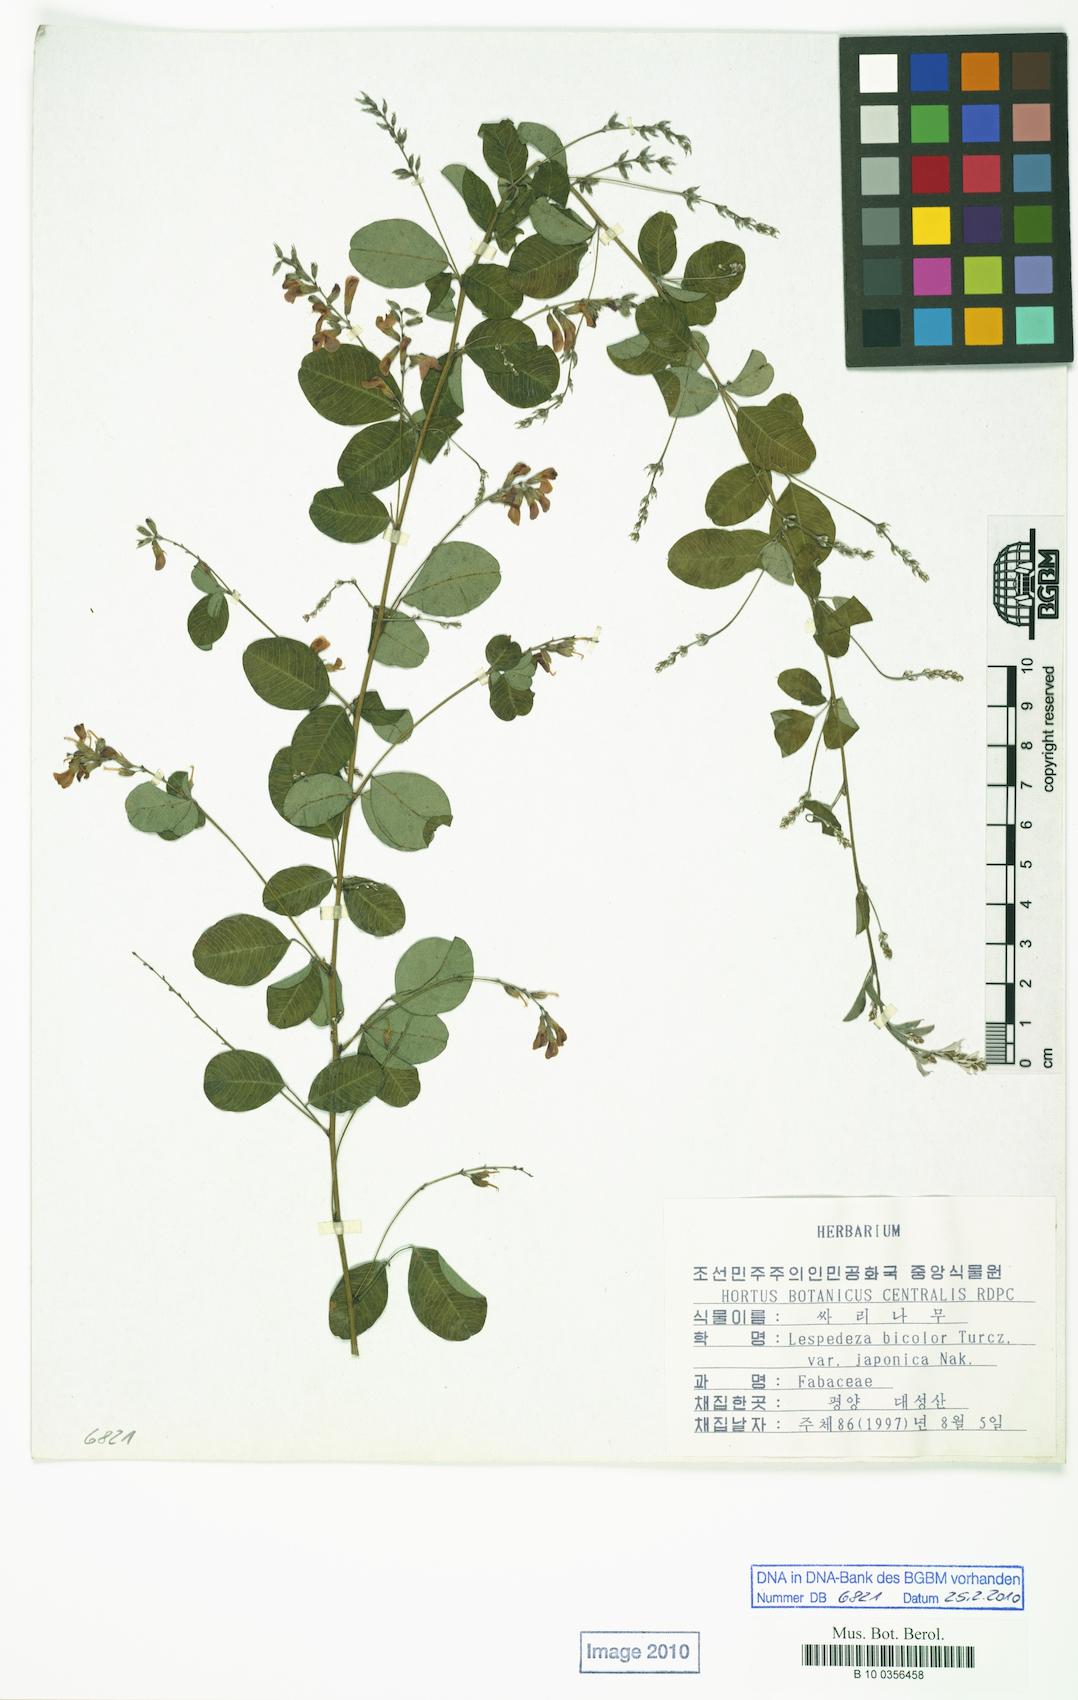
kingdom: Plantae
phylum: Tracheophyta
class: Magnoliopsida
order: Fabales
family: Fabaceae
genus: Lespedeza
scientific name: Lespedeza bicolor
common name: Shrub lespedeza
